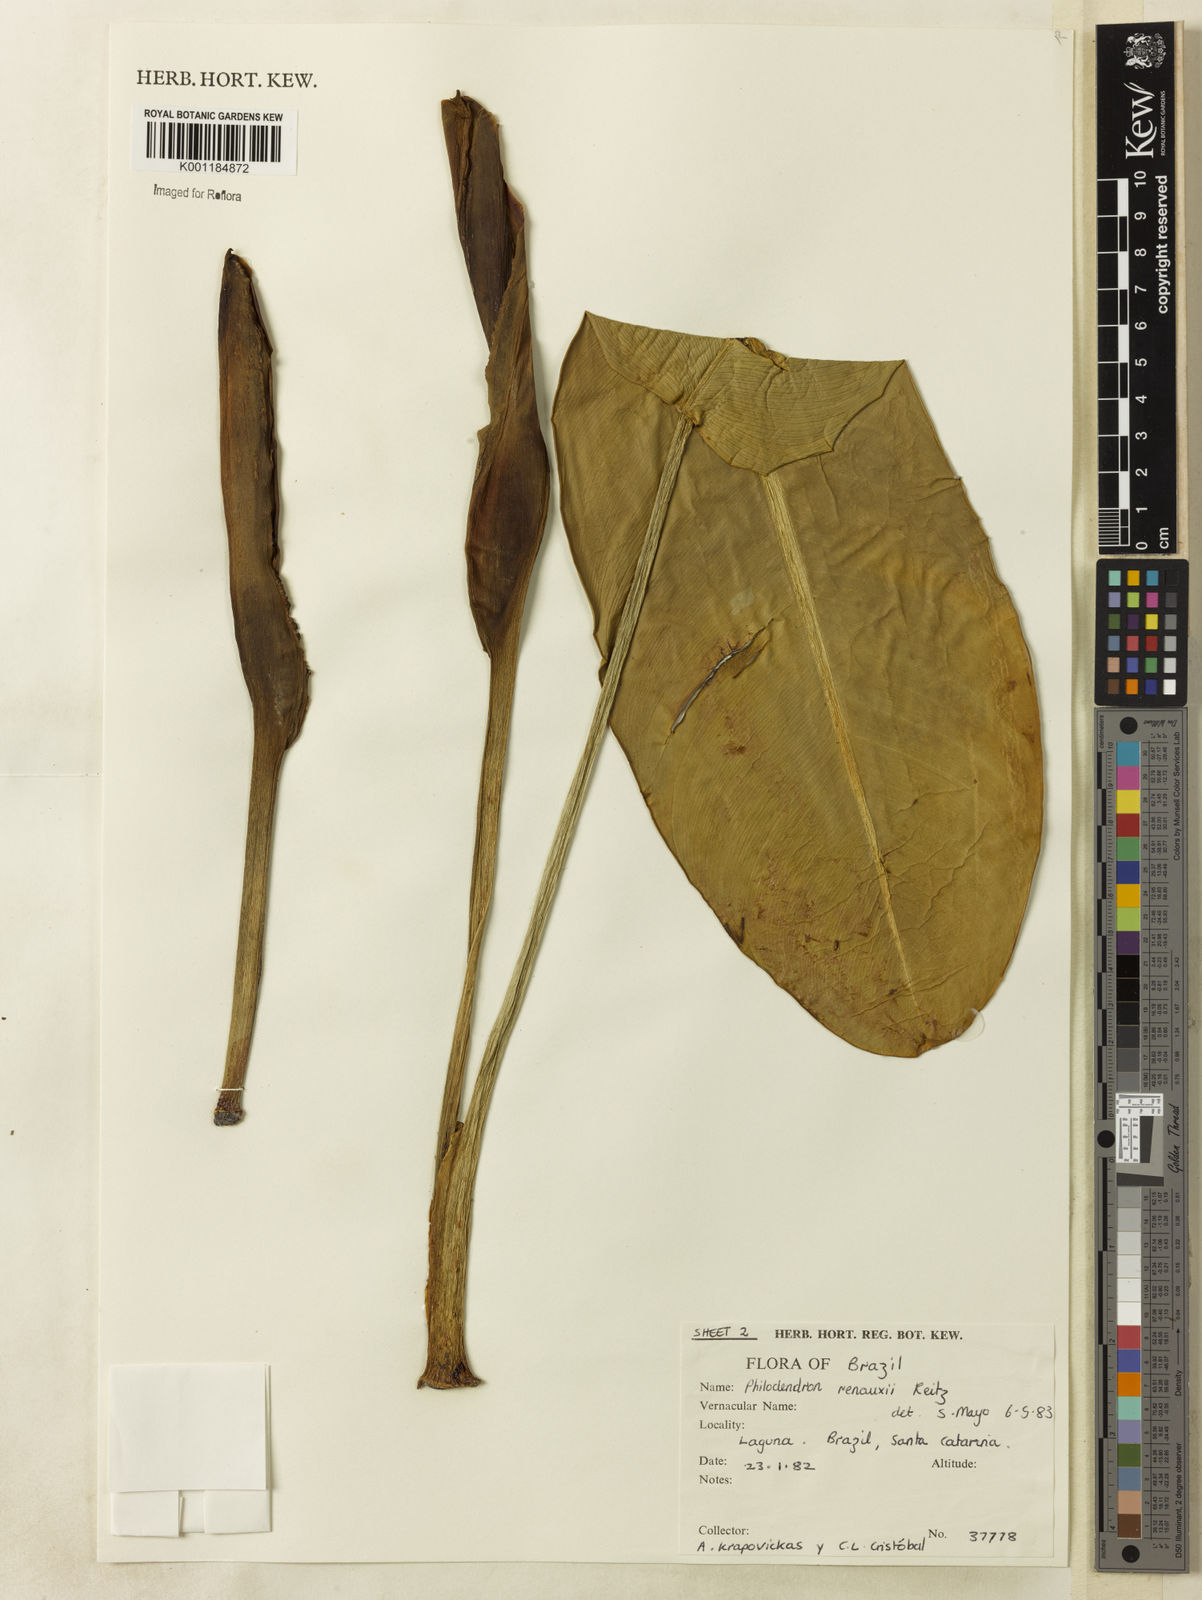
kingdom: Plantae
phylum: Tracheophyta
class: Liliopsida
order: Alismatales
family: Araceae
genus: Philodendron
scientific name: Philodendron renauxii
